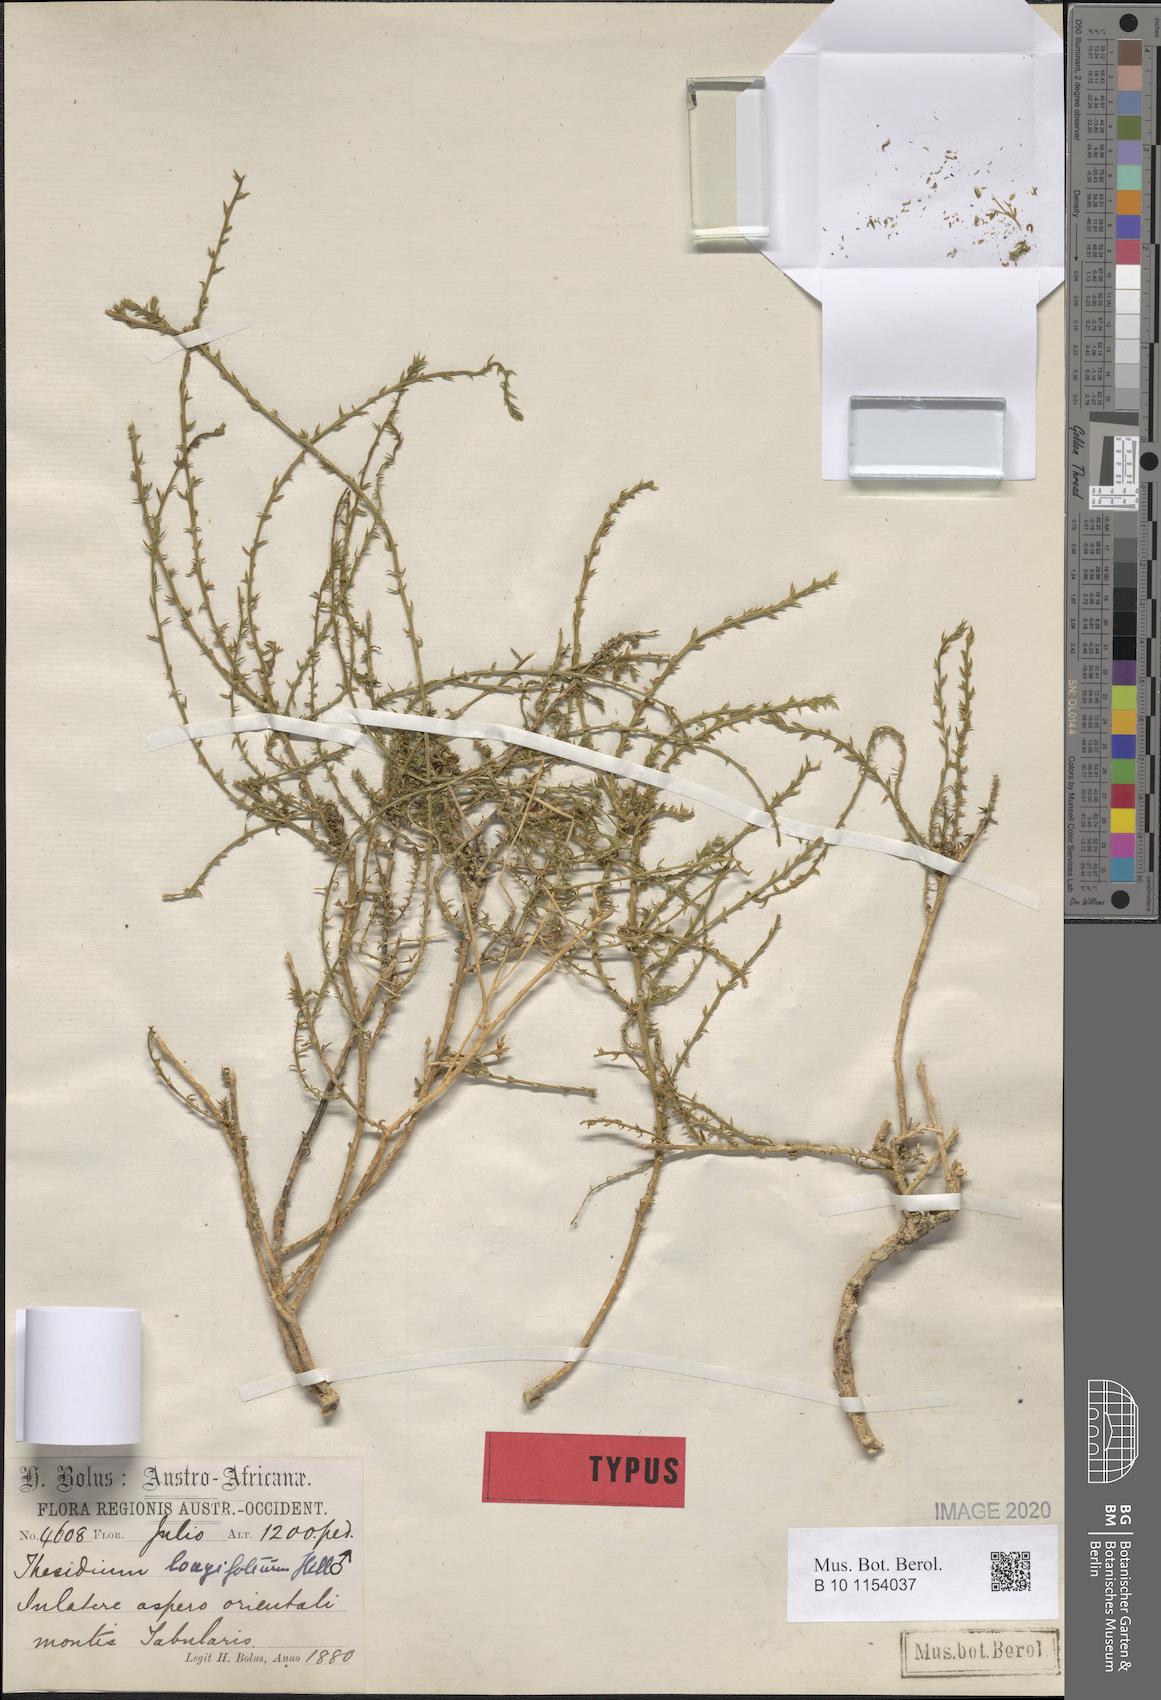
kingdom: Plantae
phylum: Tracheophyta
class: Magnoliopsida
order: Santalales
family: Thesiaceae
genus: Thesium
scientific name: Thesium longicaule
